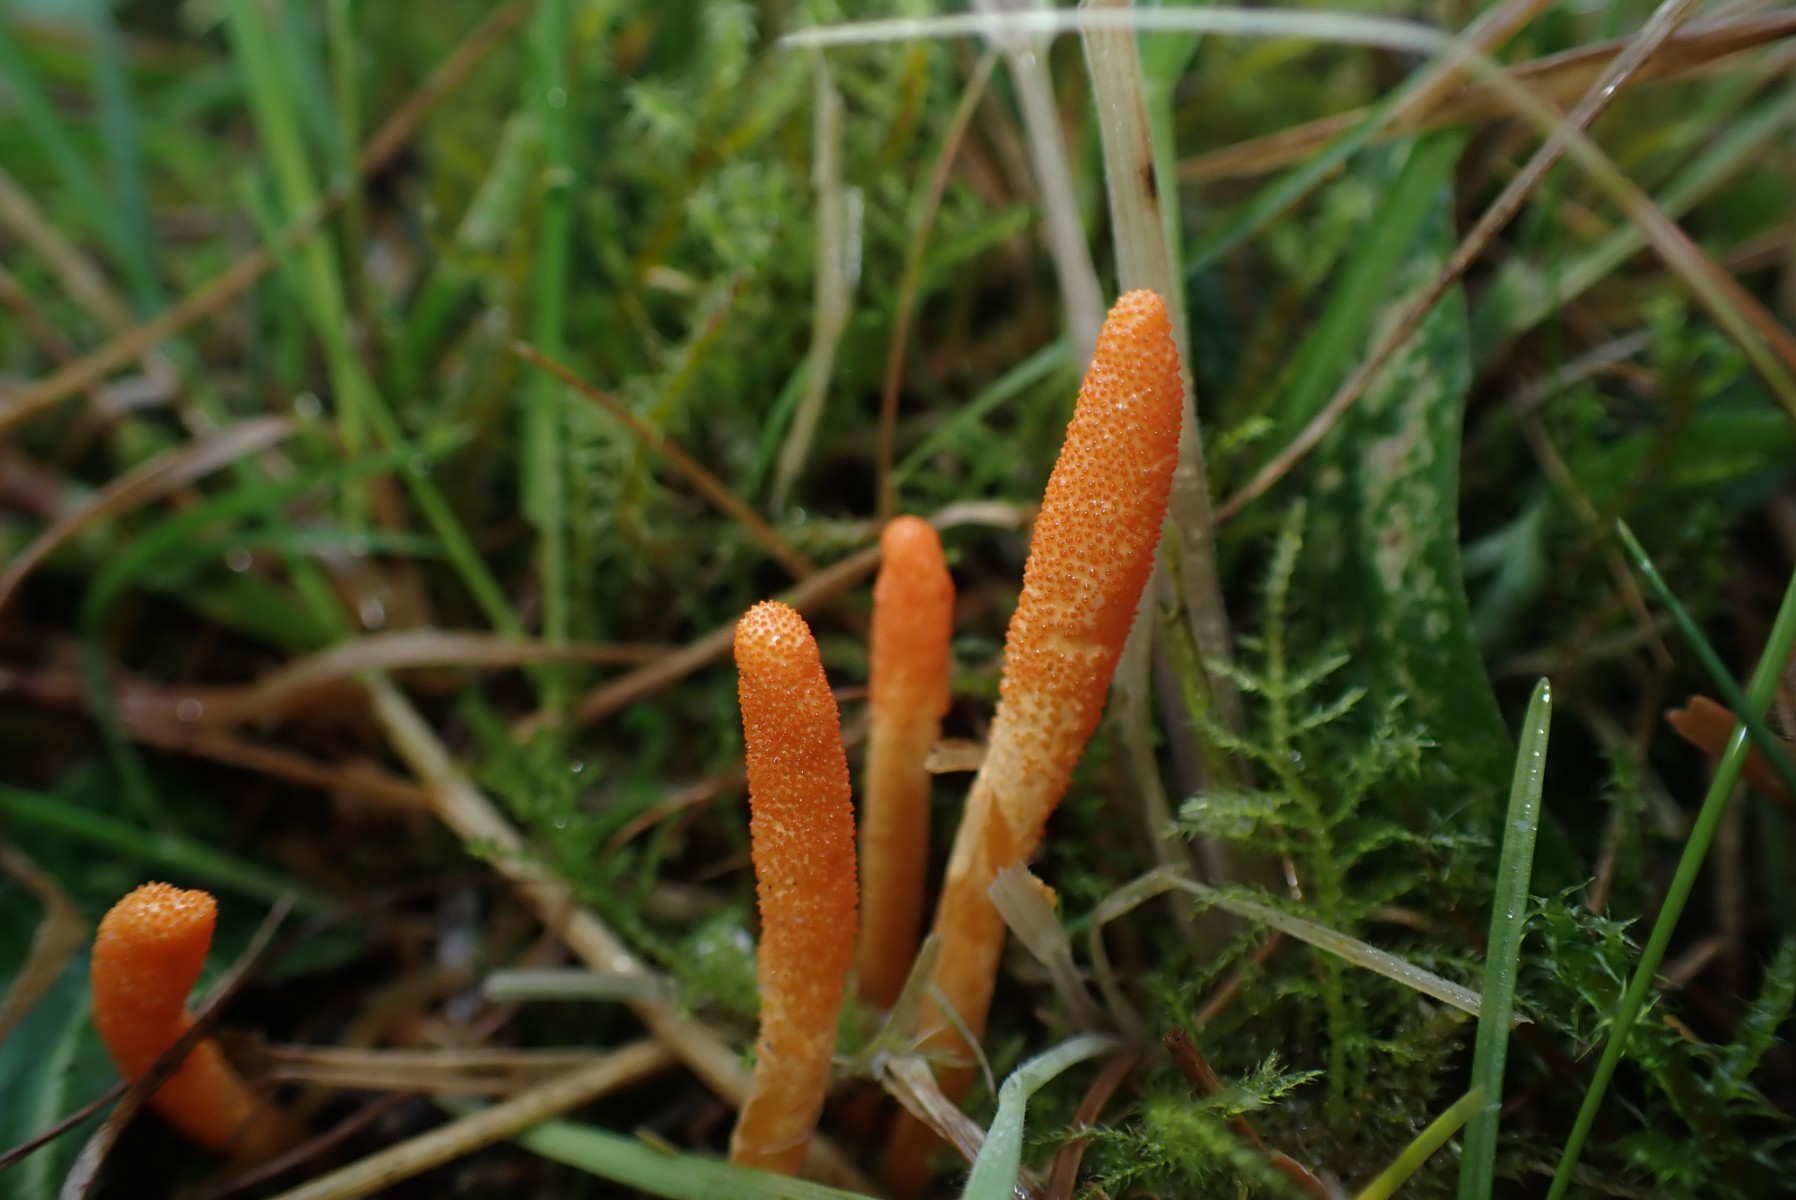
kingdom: Fungi
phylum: Ascomycota
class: Sordariomycetes
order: Hypocreales
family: Cordycipitaceae
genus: Cordyceps
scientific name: Cordyceps militaris
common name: puppe-snyltekølle
